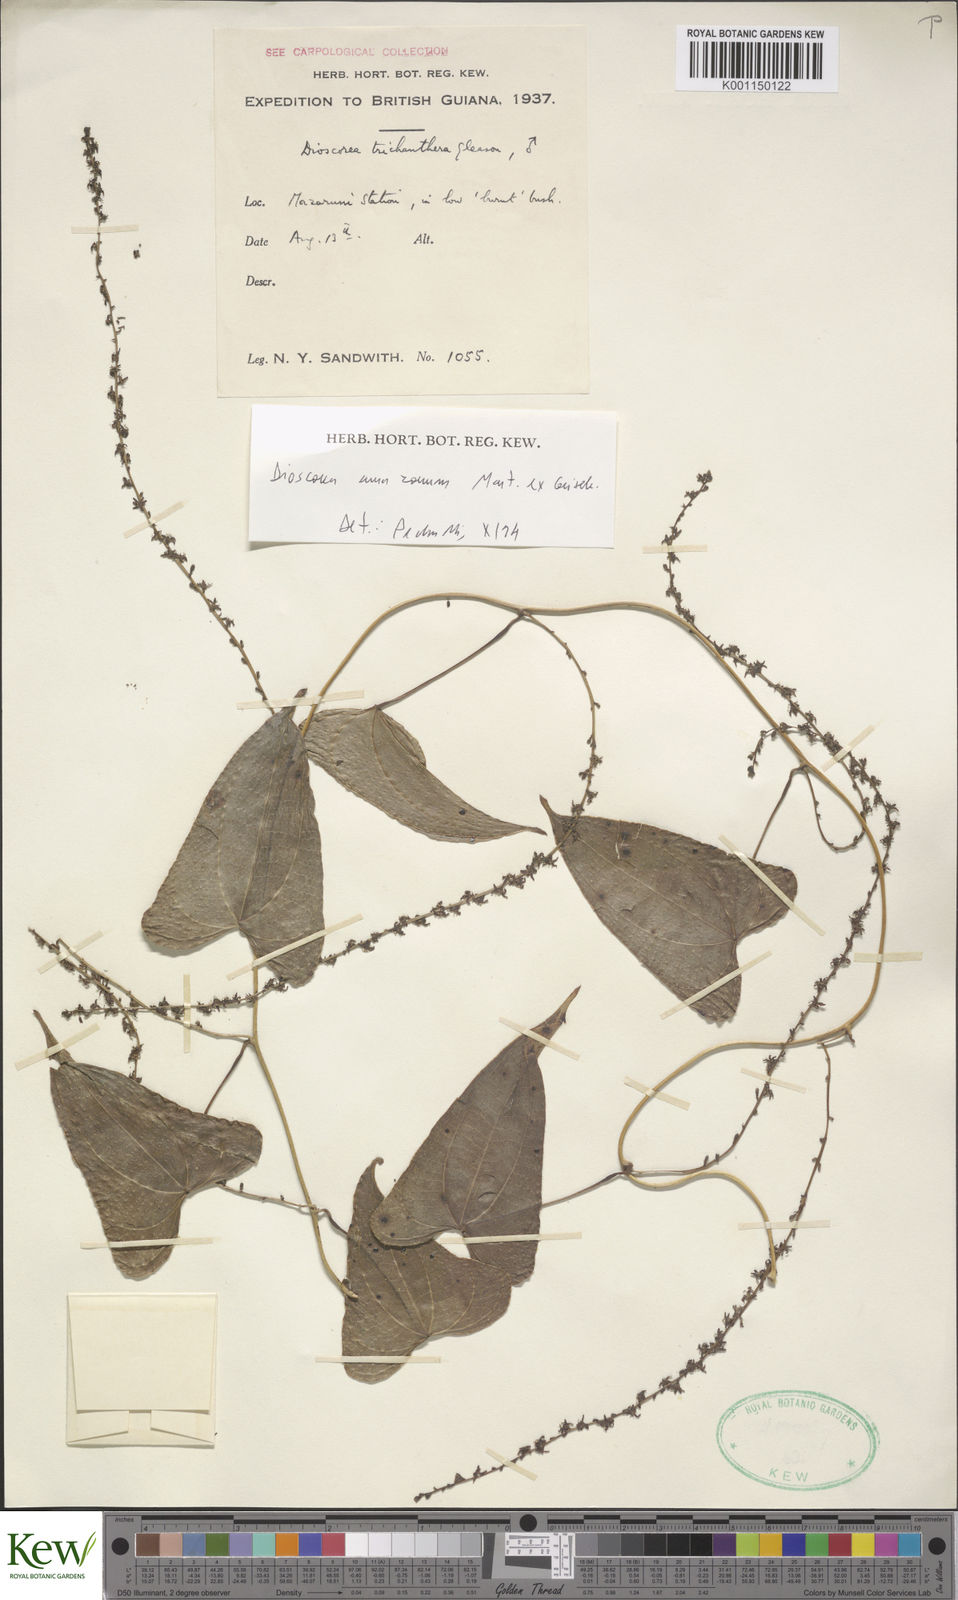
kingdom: Plantae
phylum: Tracheophyta
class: Liliopsida
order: Dioscoreales
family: Dioscoreaceae
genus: Dioscorea
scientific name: Dioscorea trichanthera
